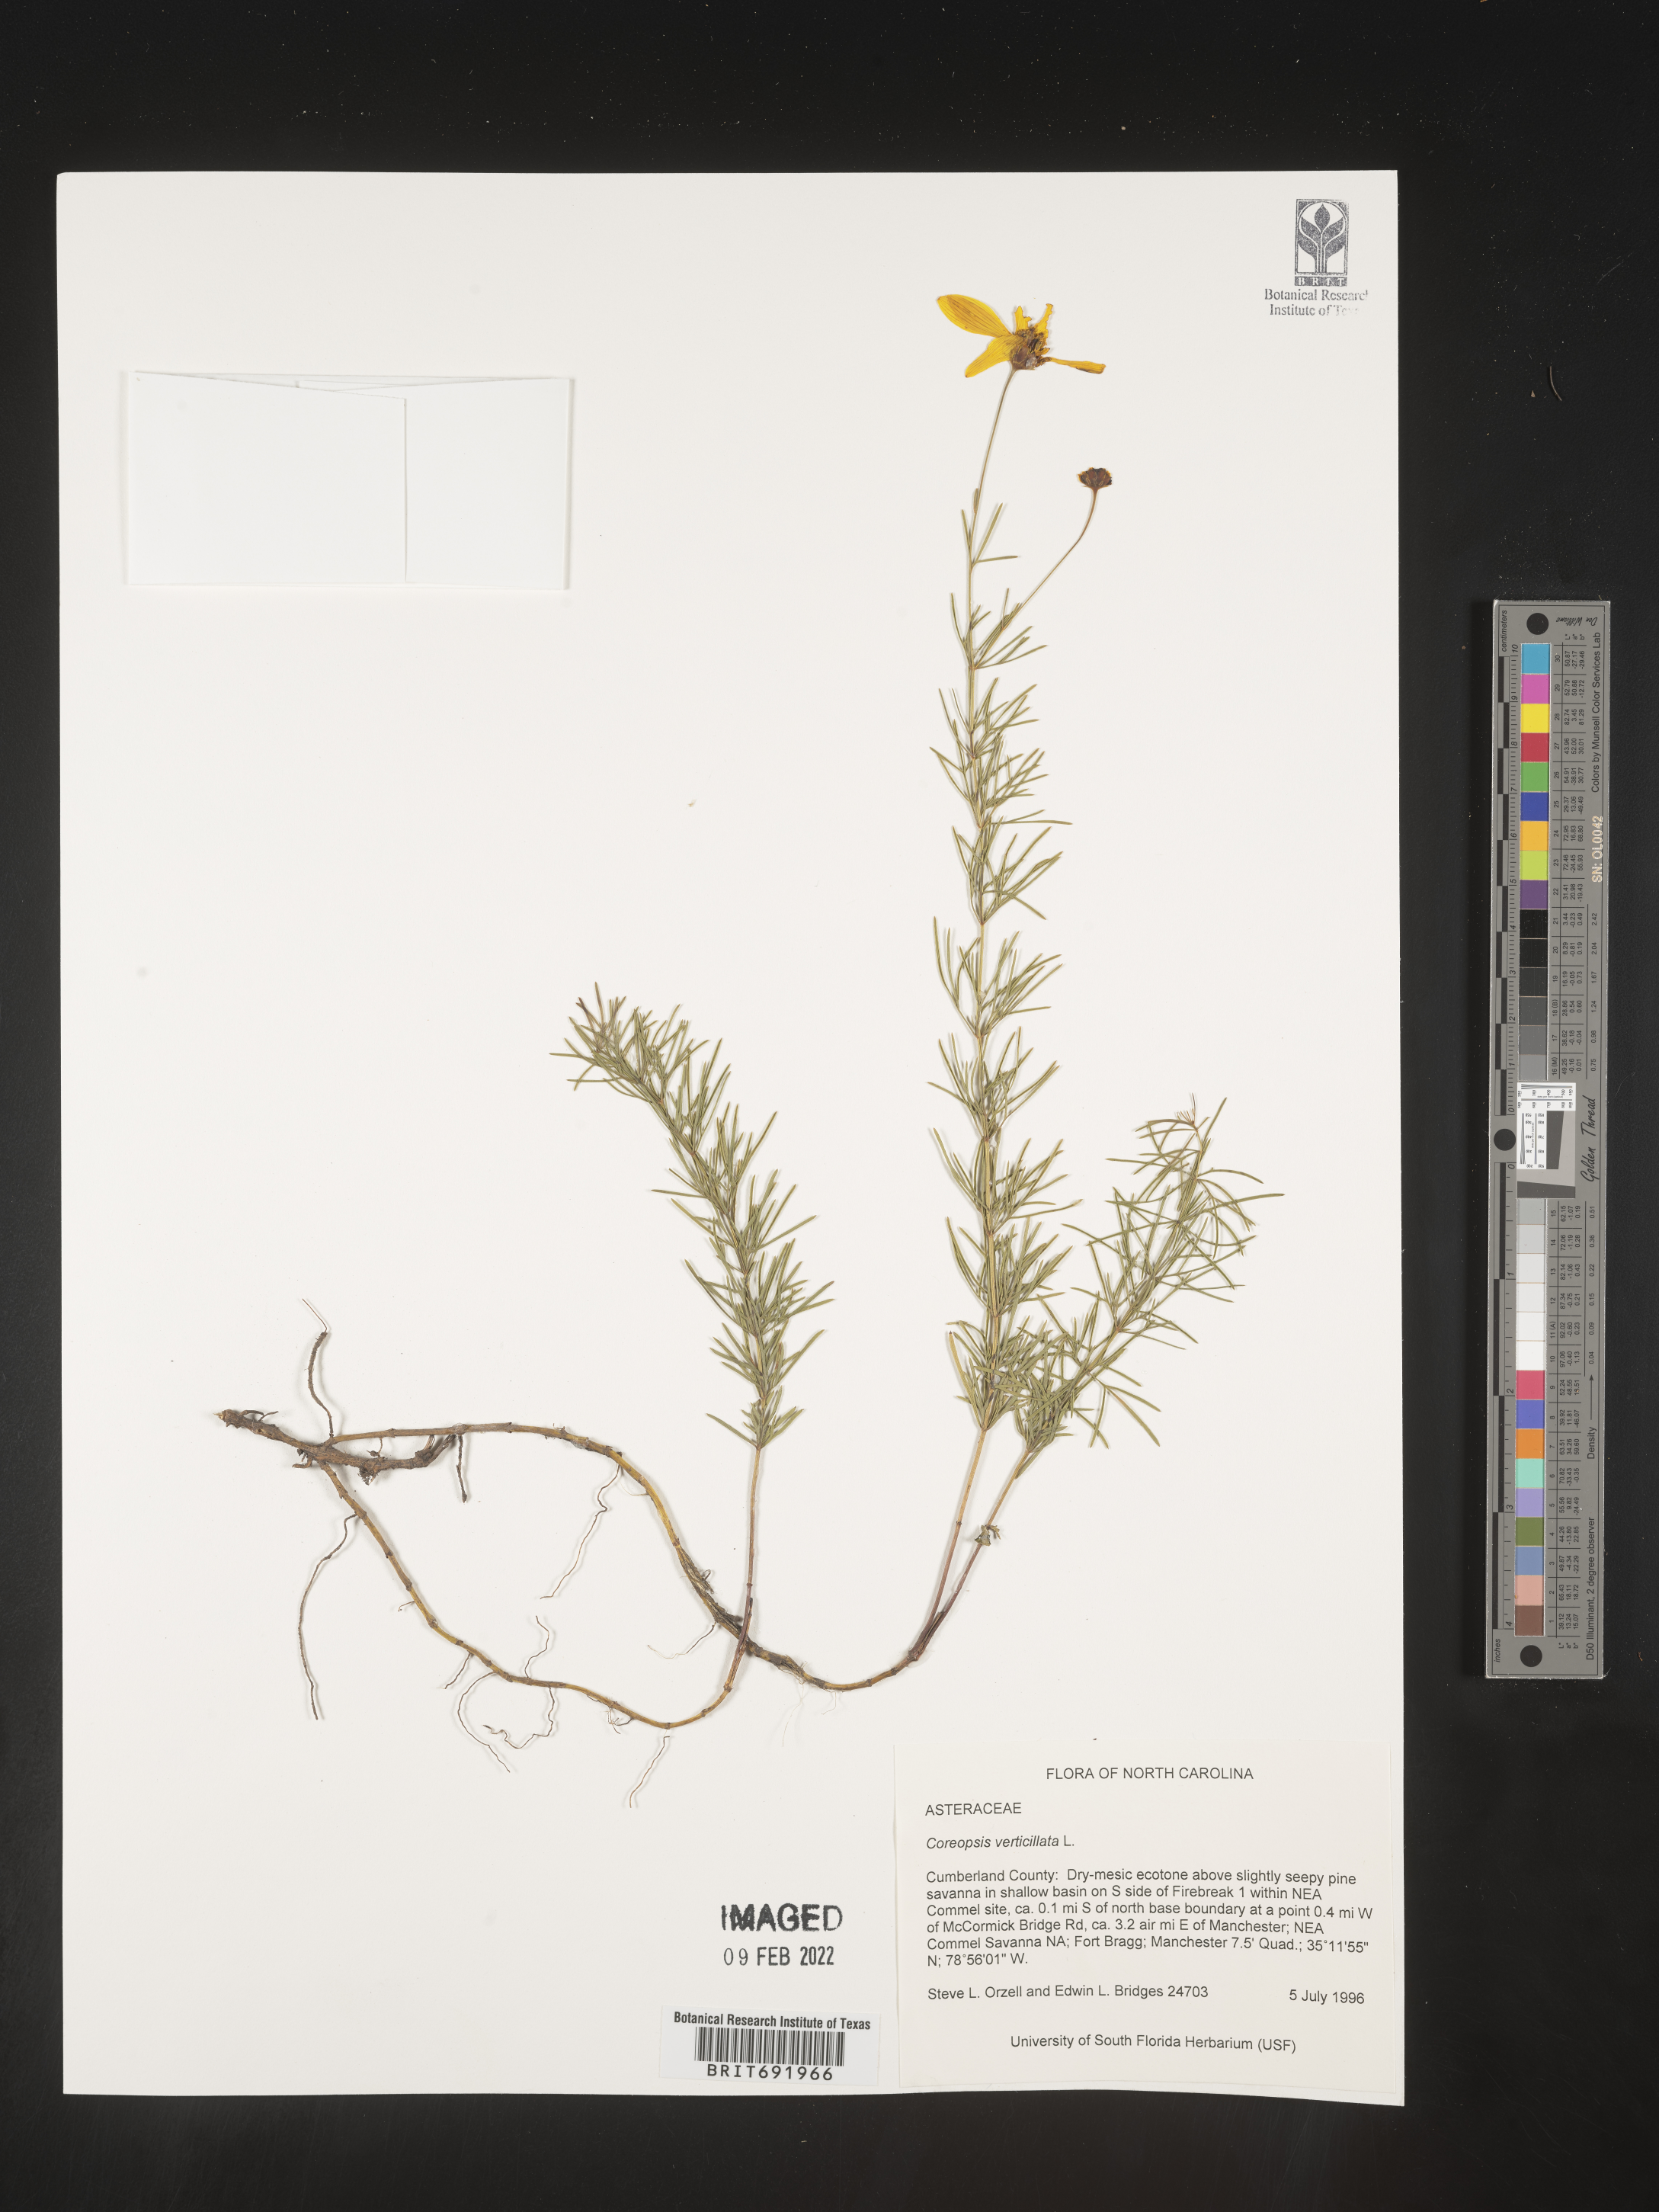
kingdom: Plantae
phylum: Tracheophyta
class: Magnoliopsida
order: Asterales
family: Asteraceae
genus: Coreopsis
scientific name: Coreopsis verticillata
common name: Whorled tickseed
